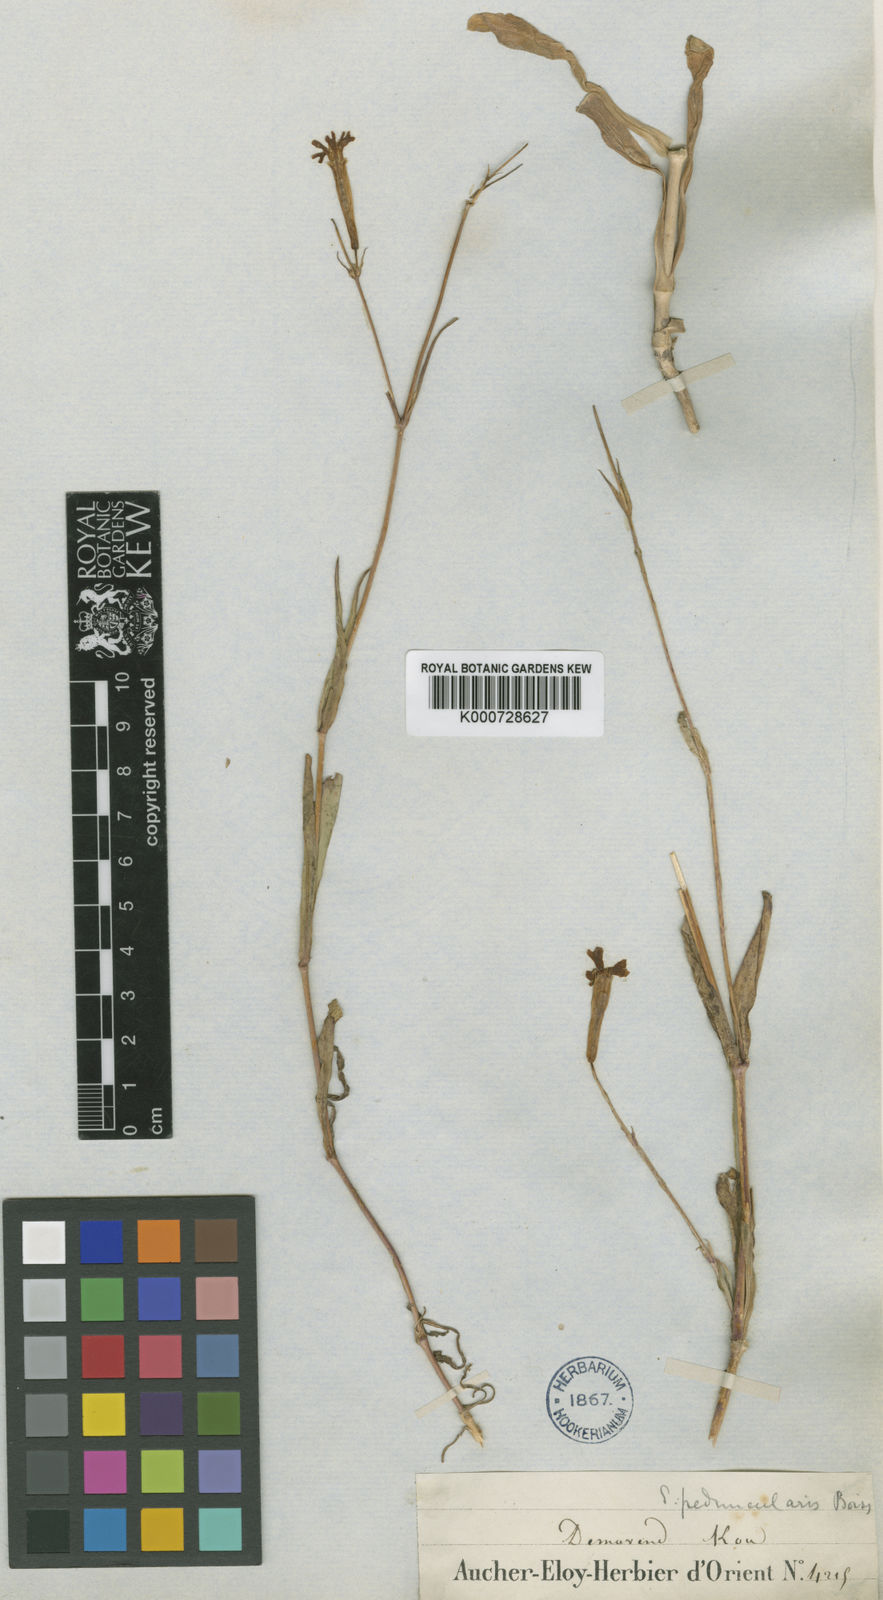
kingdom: Plantae
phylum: Tracheophyta
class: Magnoliopsida
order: Caryophyllales
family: Caryophyllaceae
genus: Silene
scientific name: Silene peduncularis
